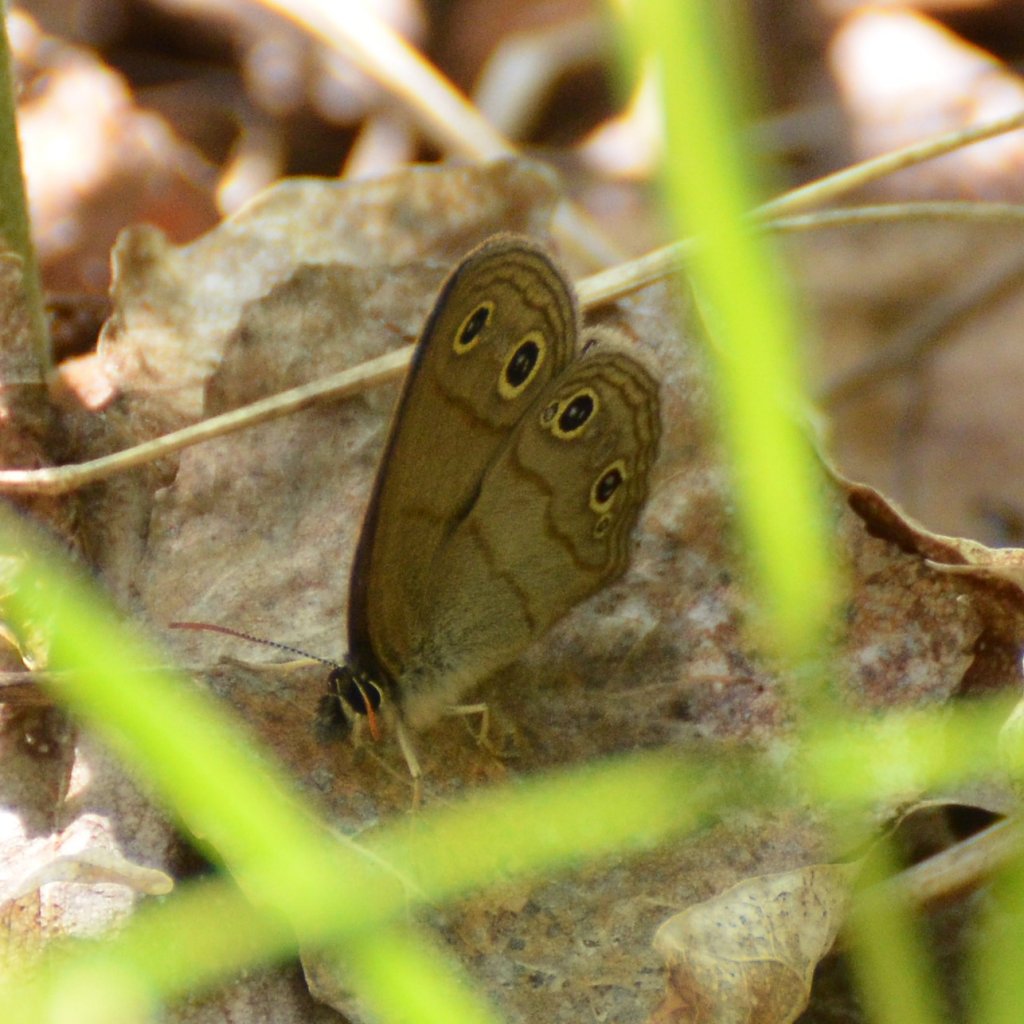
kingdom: Animalia
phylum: Arthropoda
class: Insecta
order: Lepidoptera
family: Nymphalidae
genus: Euptychia
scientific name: Euptychia cymela
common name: Little Wood Satyr
